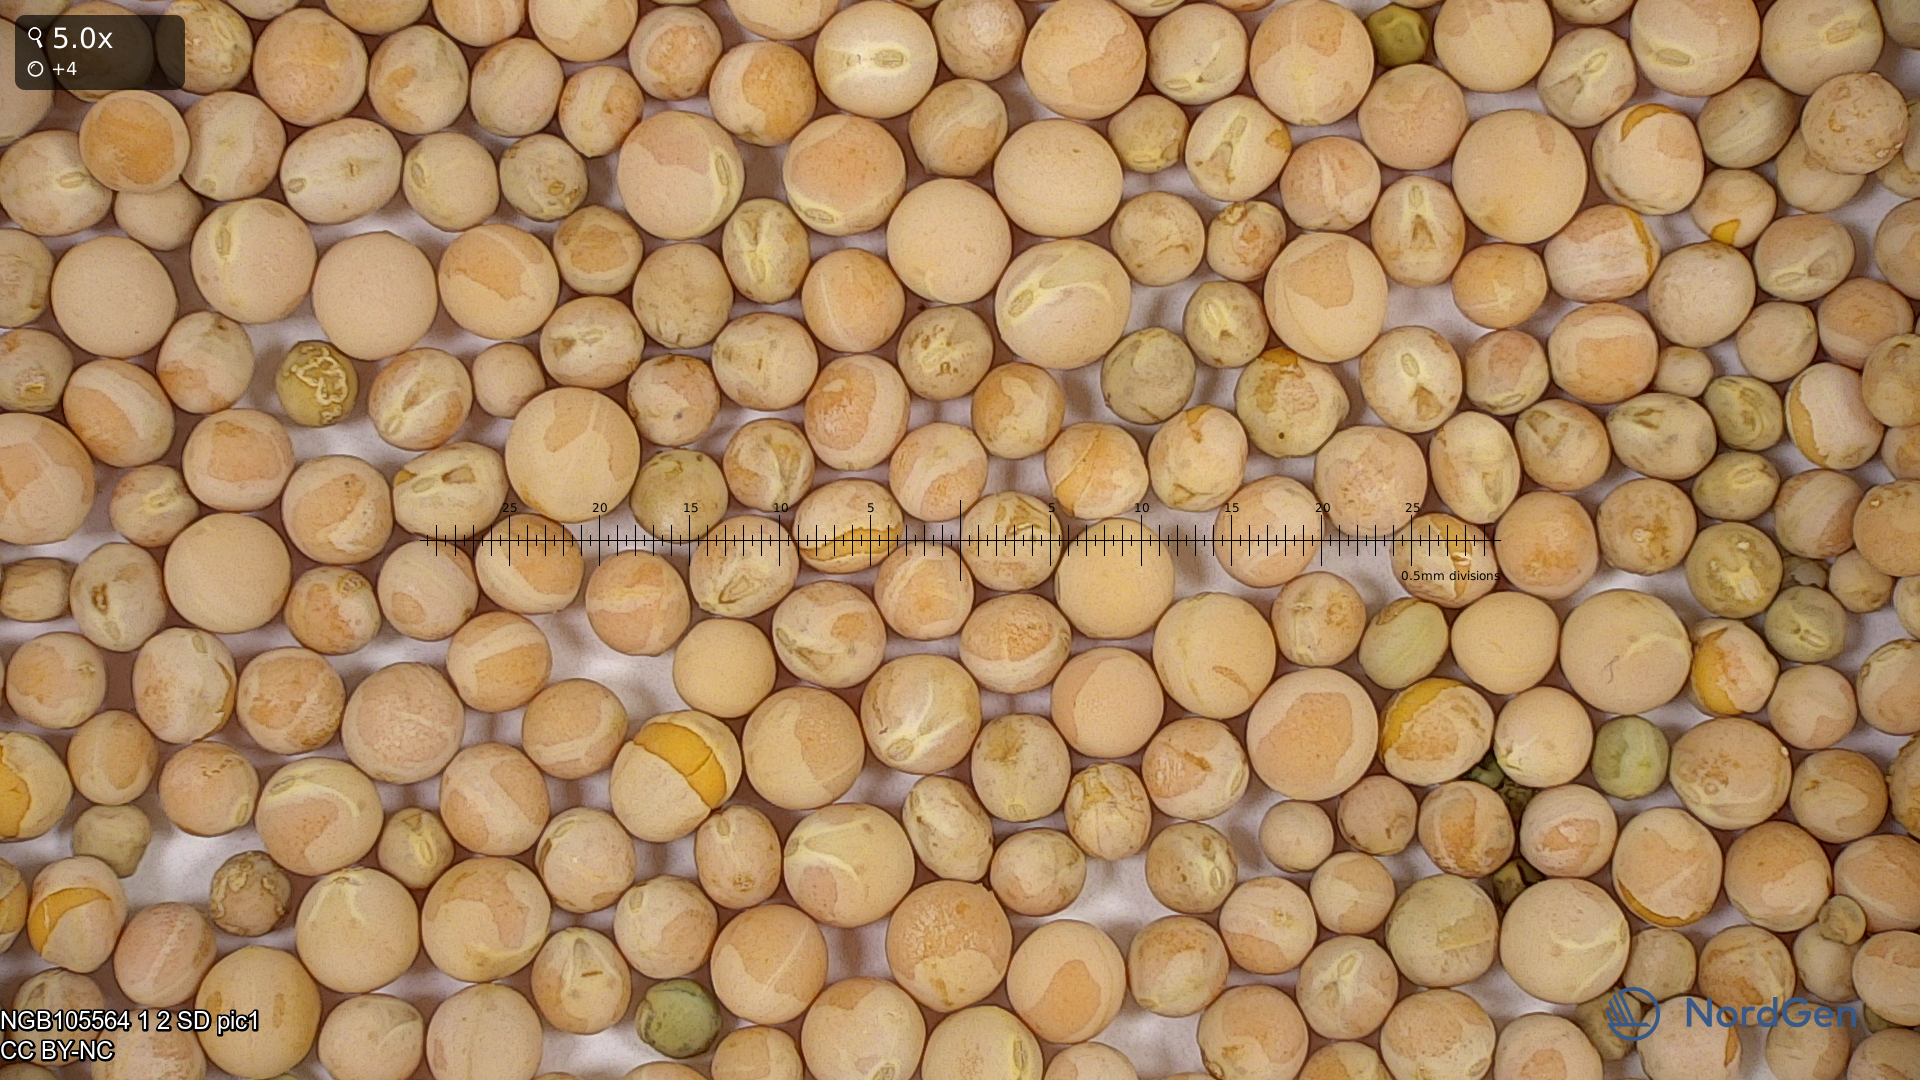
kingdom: Plantae
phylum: Tracheophyta
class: Magnoliopsida
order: Fabales
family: Fabaceae
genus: Lathyrus
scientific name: Lathyrus oleraceus
